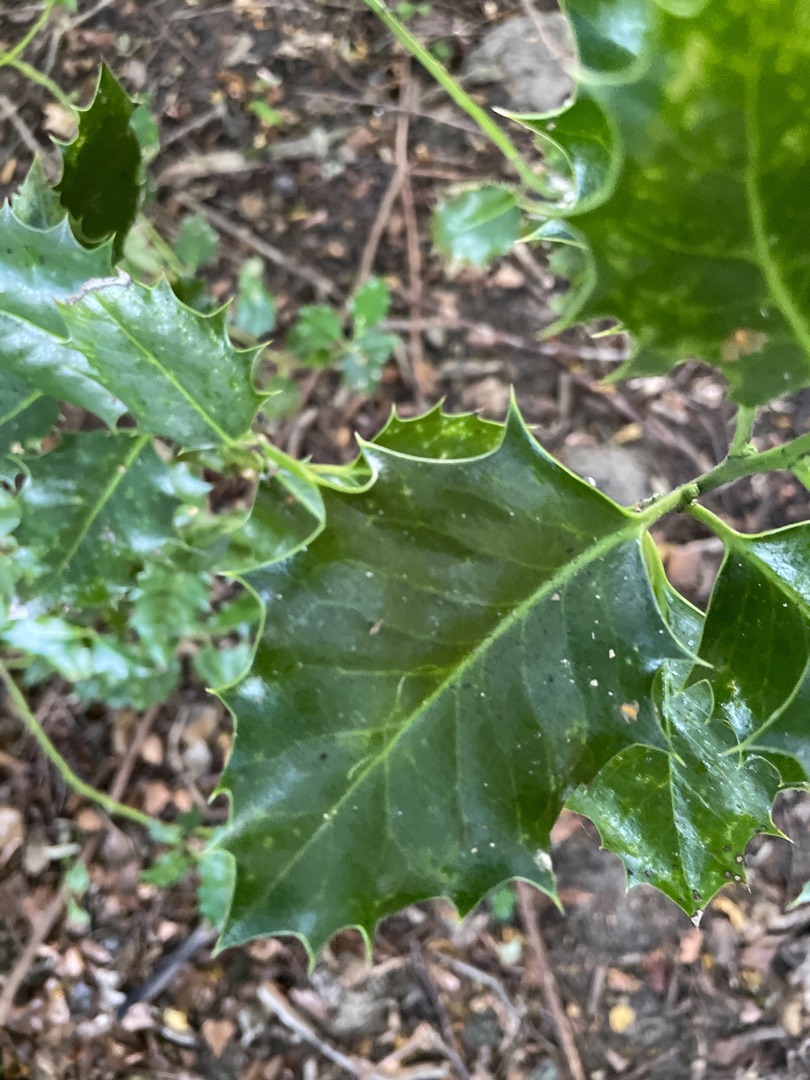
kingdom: Plantae
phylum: Tracheophyta
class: Magnoliopsida
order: Aquifoliales
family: Aquifoliaceae
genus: Ilex
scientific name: Ilex aquifolium
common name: Kristtorn
